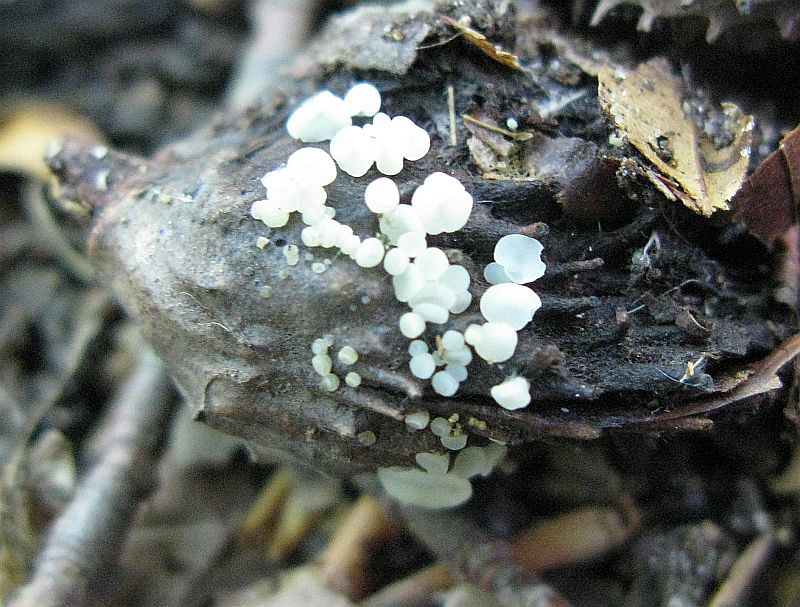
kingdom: Fungi
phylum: Ascomycota
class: Leotiomycetes
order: Helotiales
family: Helotiaceae
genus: Hymenoscyphus
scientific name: Hymenoscyphus fagineus
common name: vellugtende stilkskive
